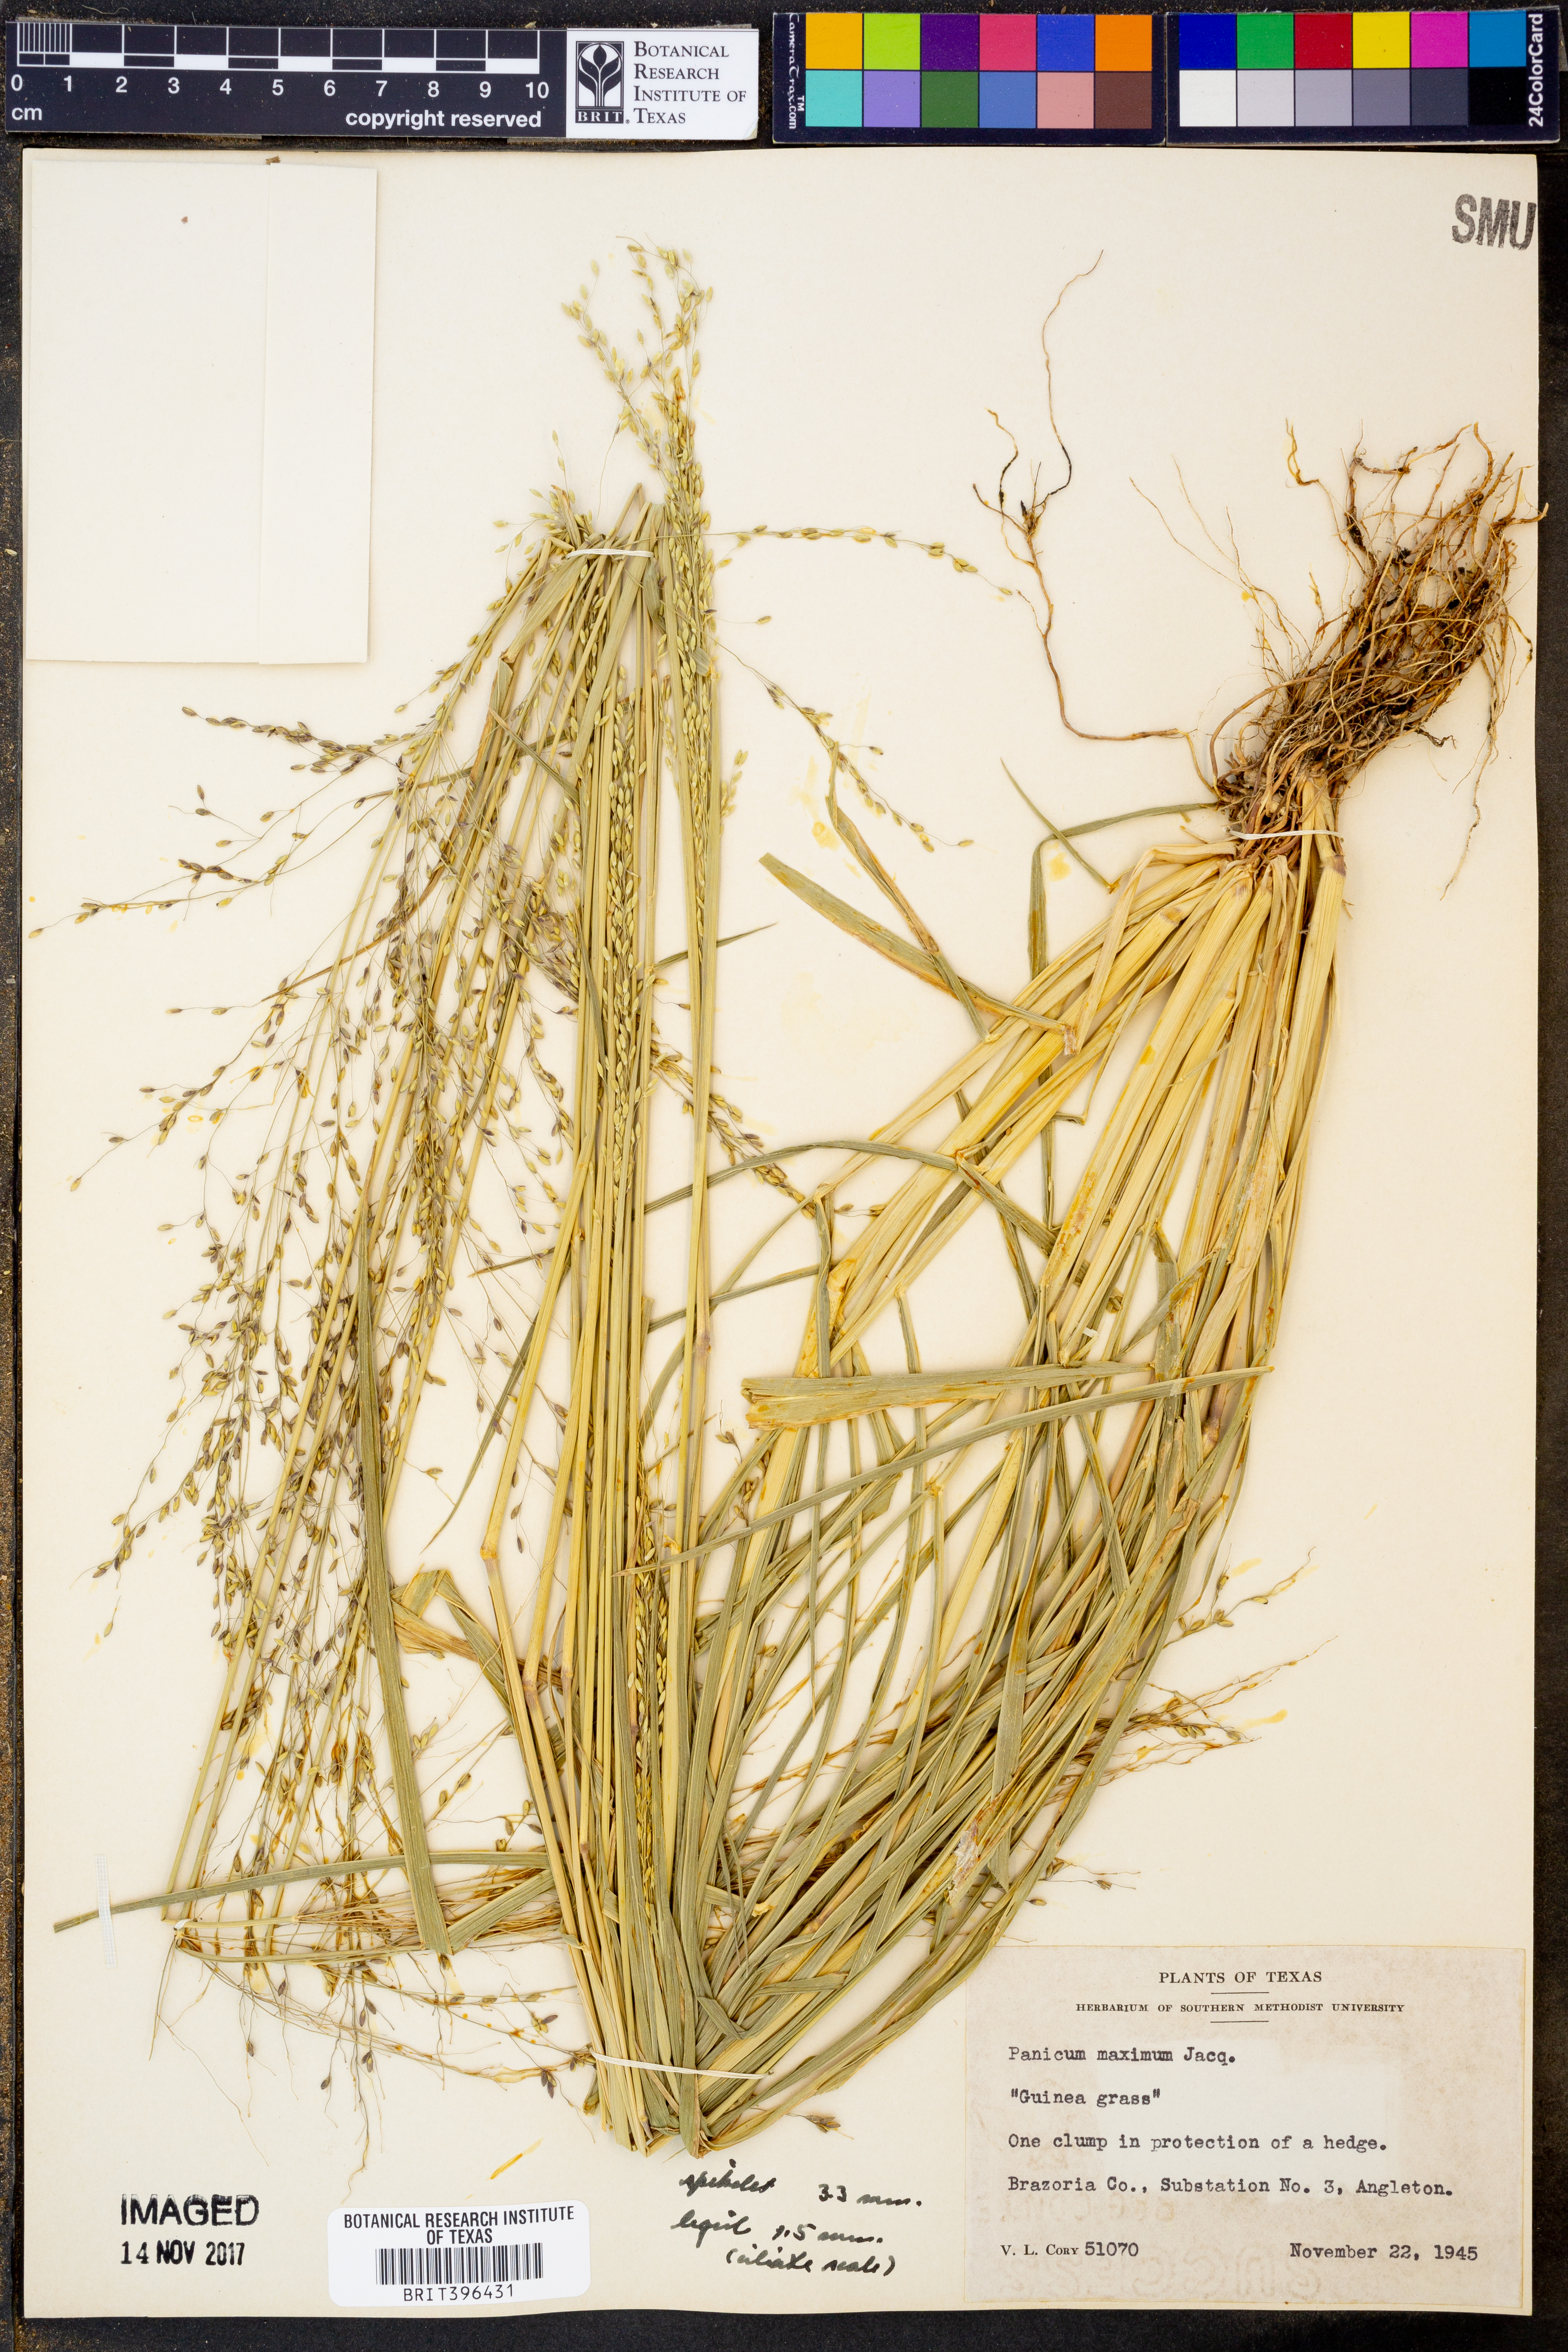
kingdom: Plantae
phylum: Tracheophyta
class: Liliopsida
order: Poales
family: Poaceae
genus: Megathyrsus
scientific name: Megathyrsus maximus
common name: Guineagrass
